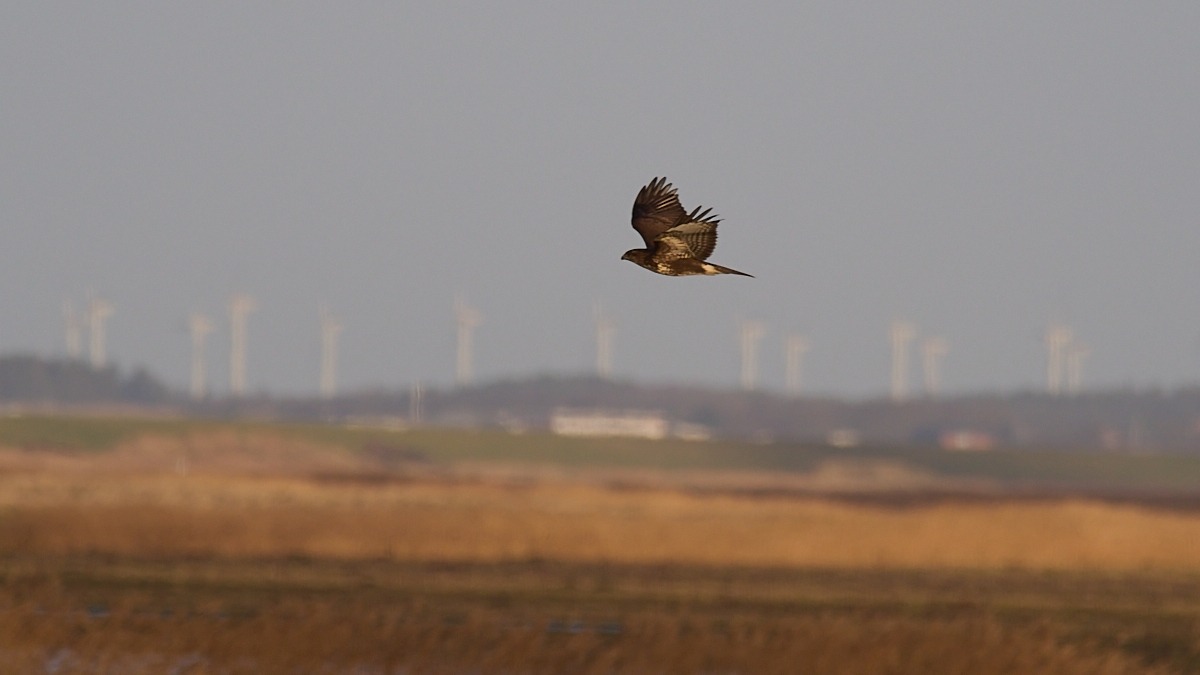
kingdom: Animalia
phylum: Chordata
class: Aves
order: Accipitriformes
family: Accipitridae
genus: Buteo
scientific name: Buteo buteo
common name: Musvåge
